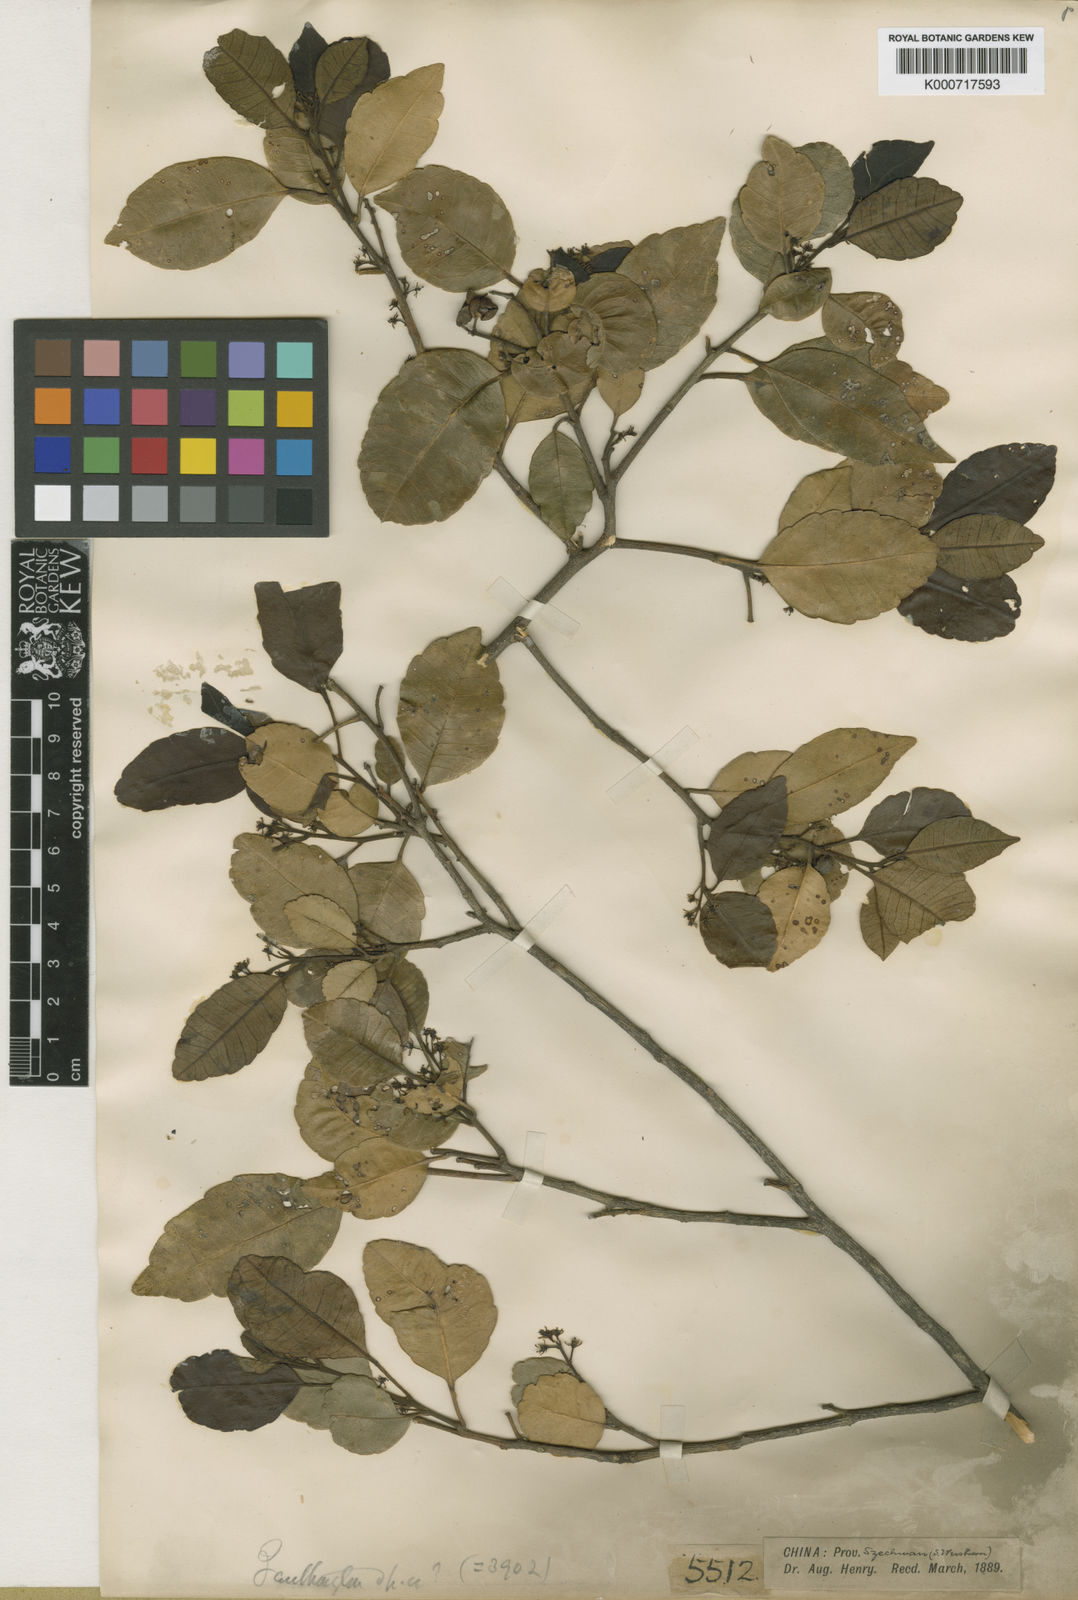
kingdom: Plantae
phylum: Tracheophyta
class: Magnoliopsida
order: Sapindales
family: Rutaceae
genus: Zanthoxylum
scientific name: Zanthoxylum dimorphophyllum
